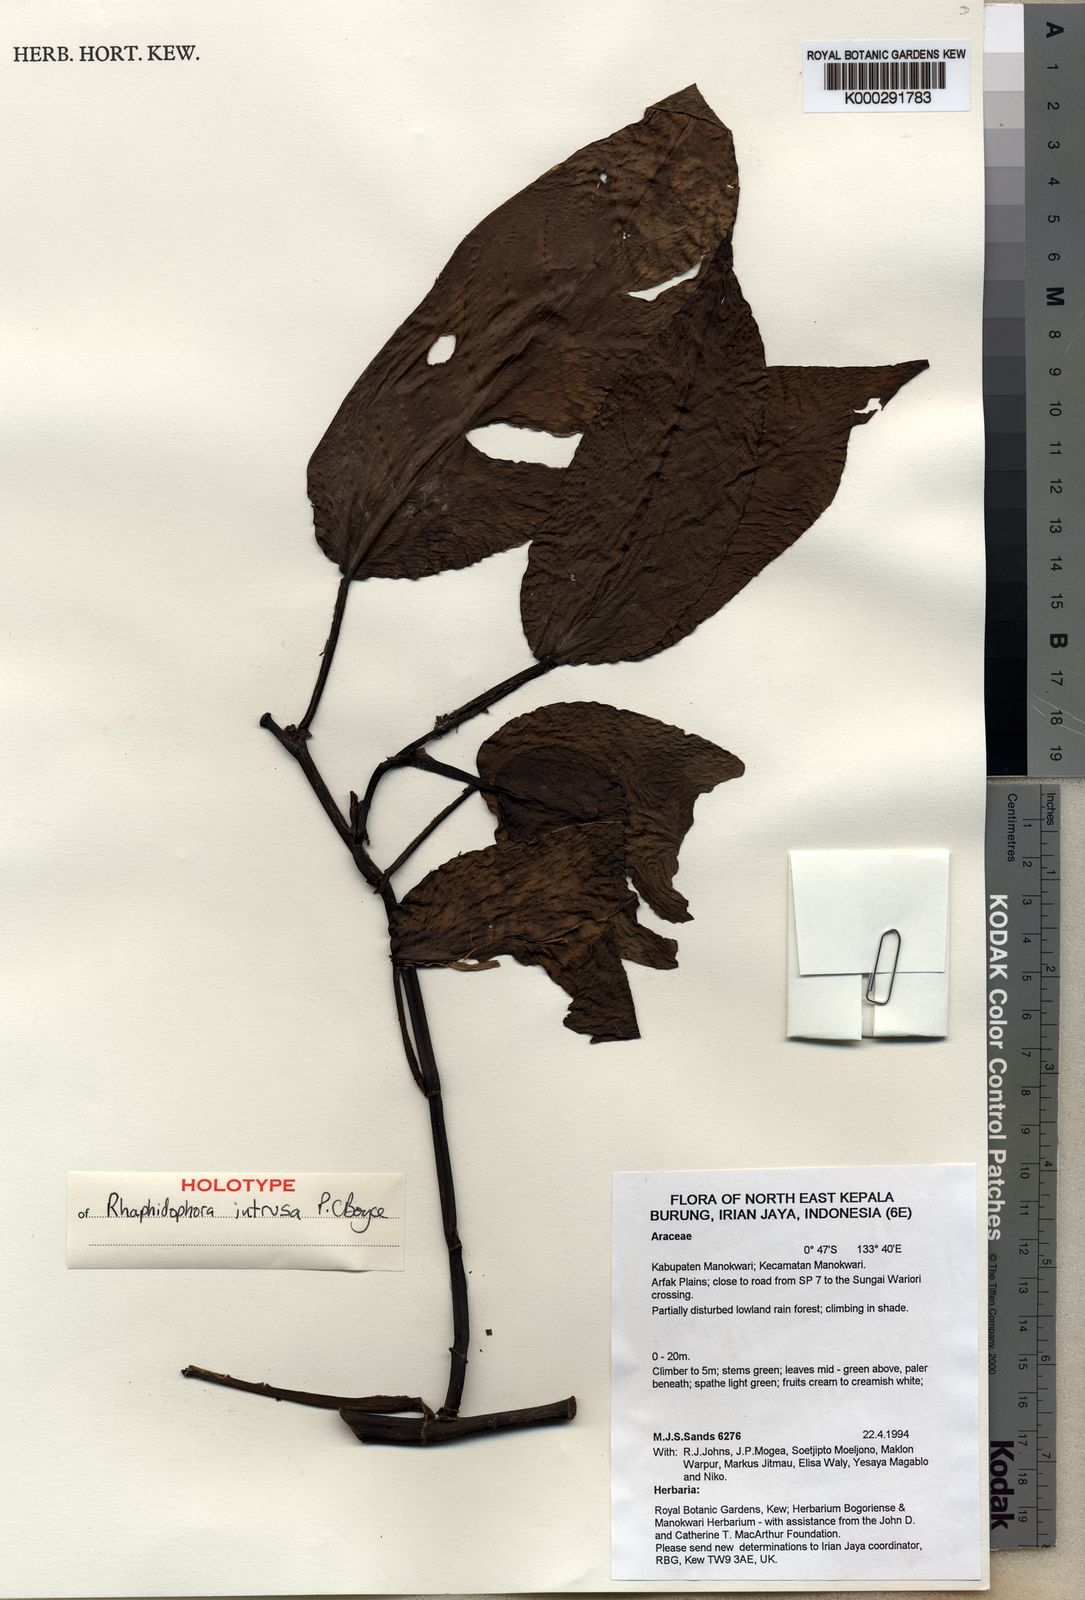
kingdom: Plantae
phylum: Tracheophyta
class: Liliopsida
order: Alismatales
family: Araceae
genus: Rhaphidophora
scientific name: Rhaphidophora intrusa
